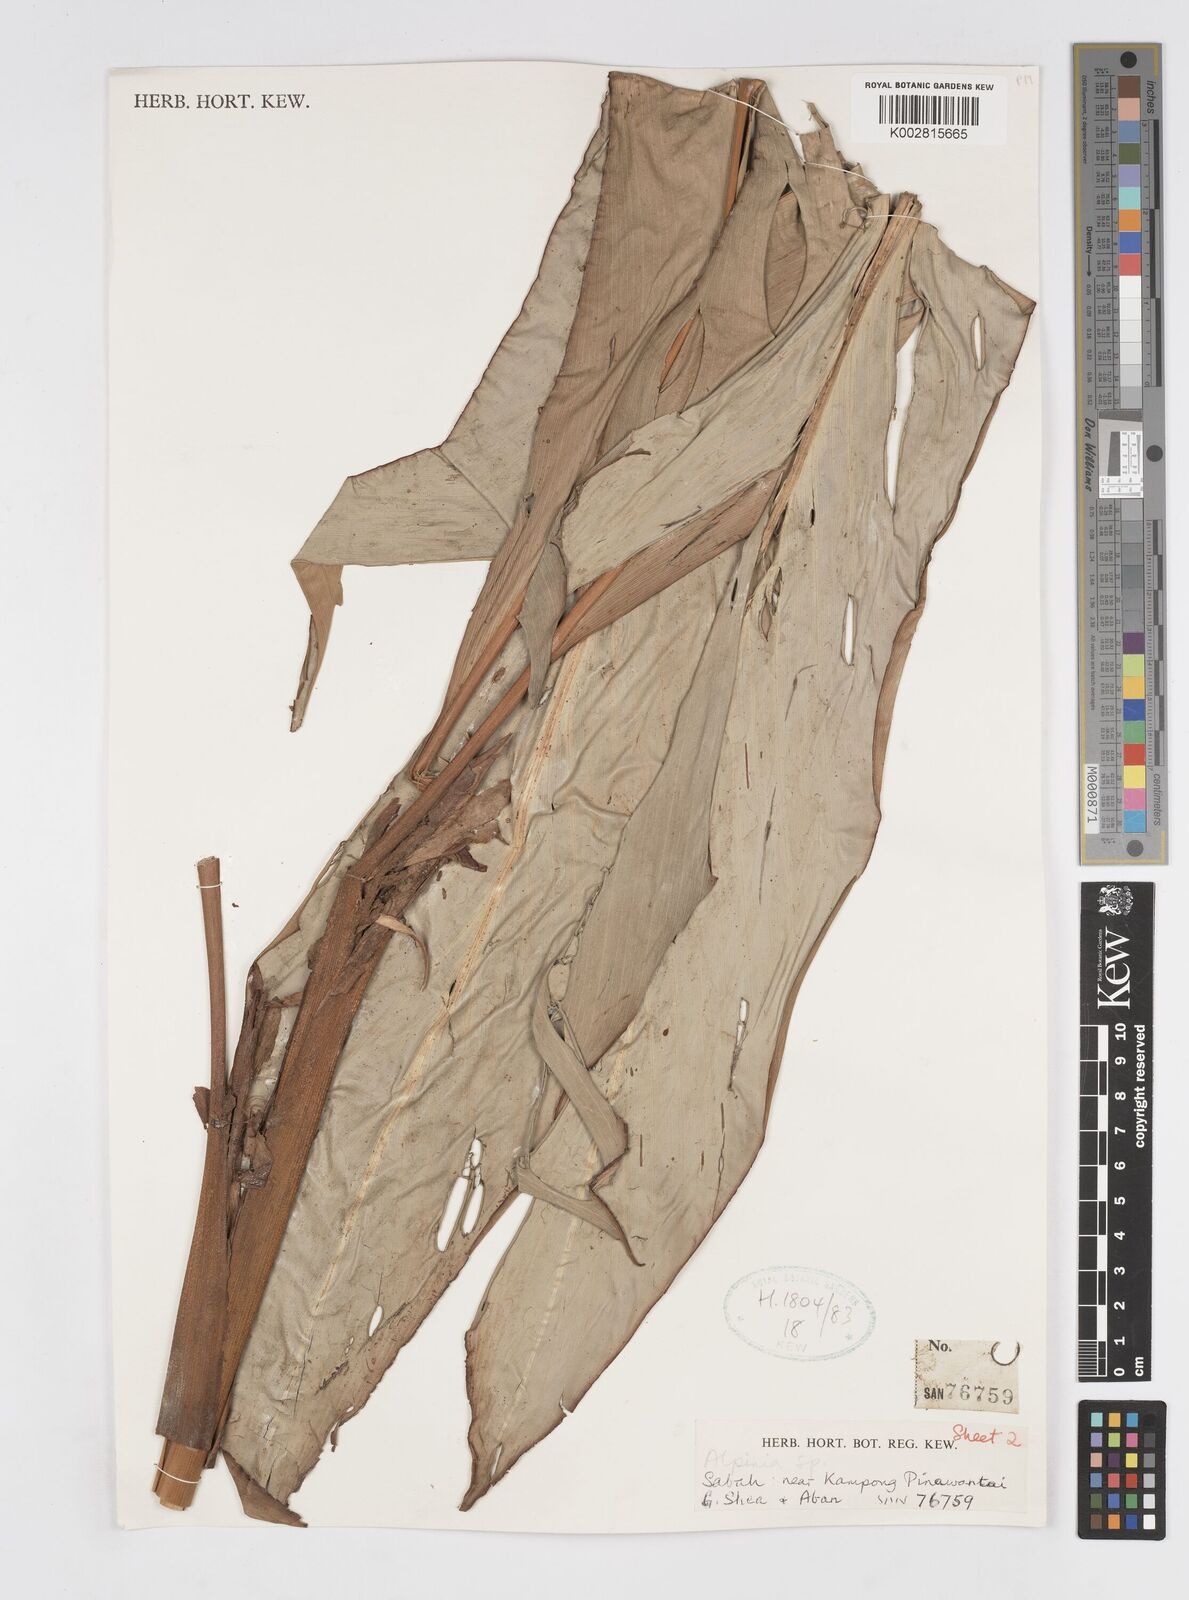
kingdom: Plantae
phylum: Tracheophyta
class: Liliopsida
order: Zingiberales
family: Zingiberaceae
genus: Alpinia
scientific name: Alpinia ligulata
